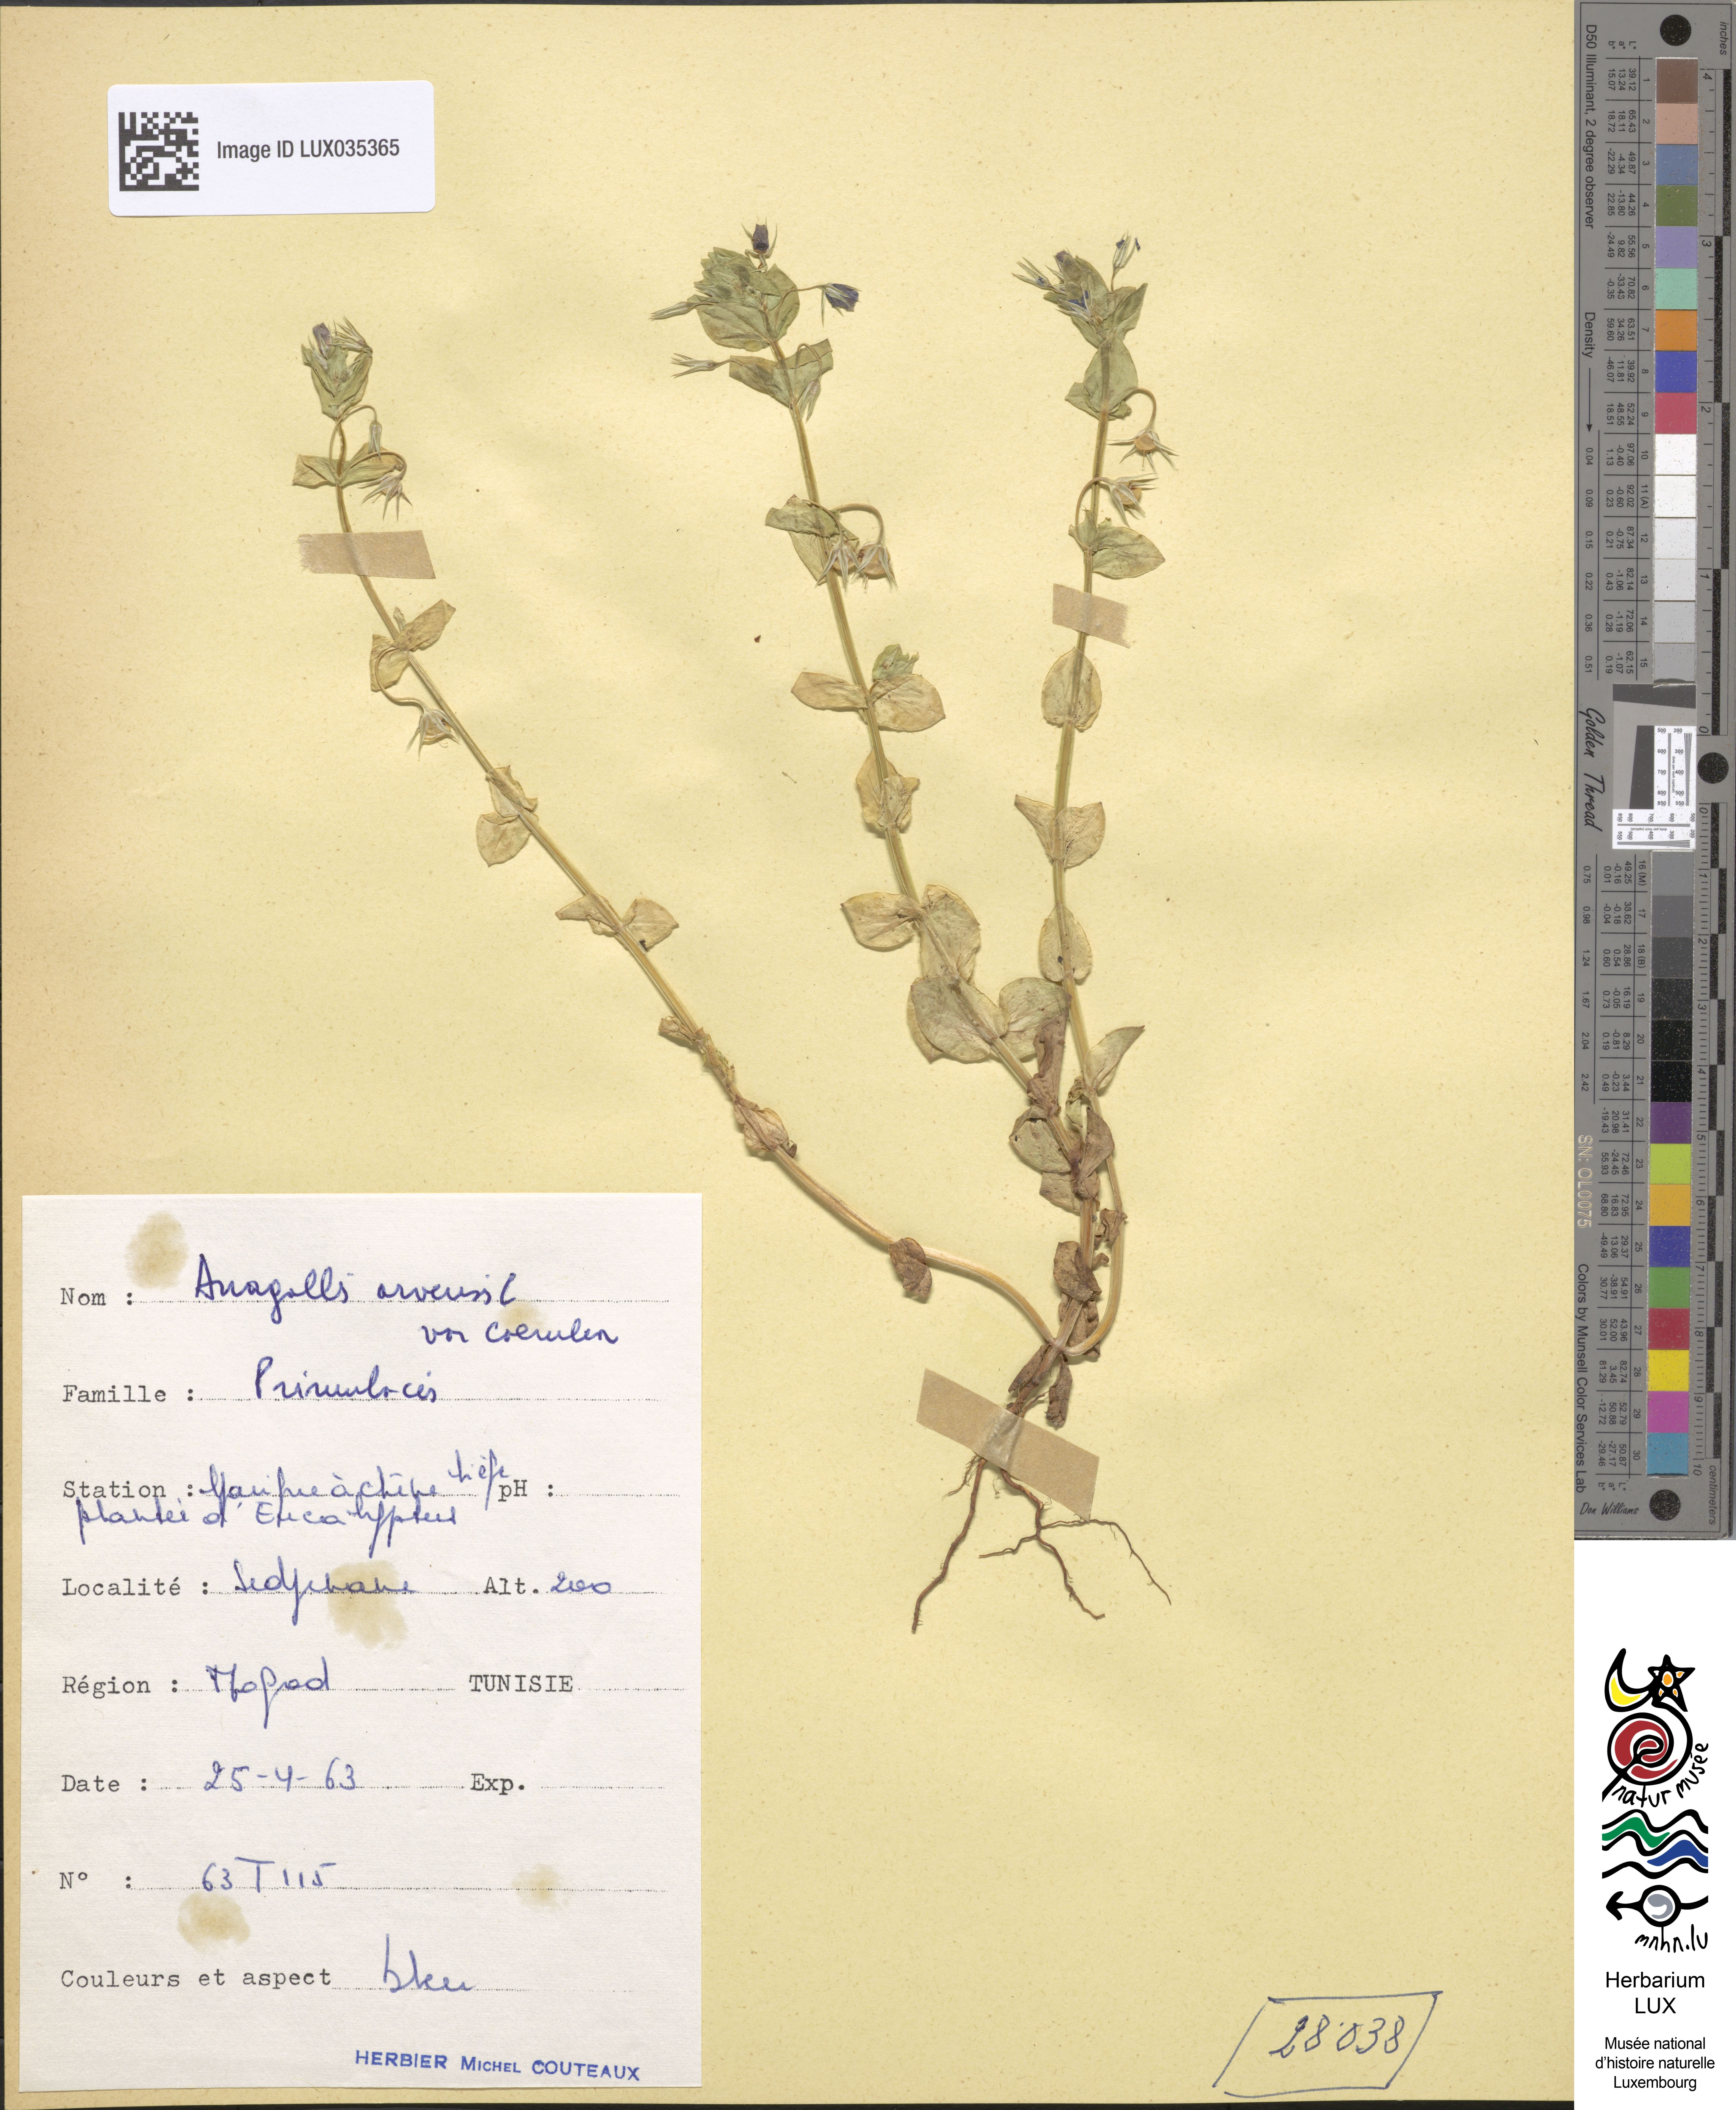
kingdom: Plantae
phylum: Tracheophyta
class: Magnoliopsida
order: Ericales
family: Primulaceae
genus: Lysimachia
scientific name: Lysimachia foemina
